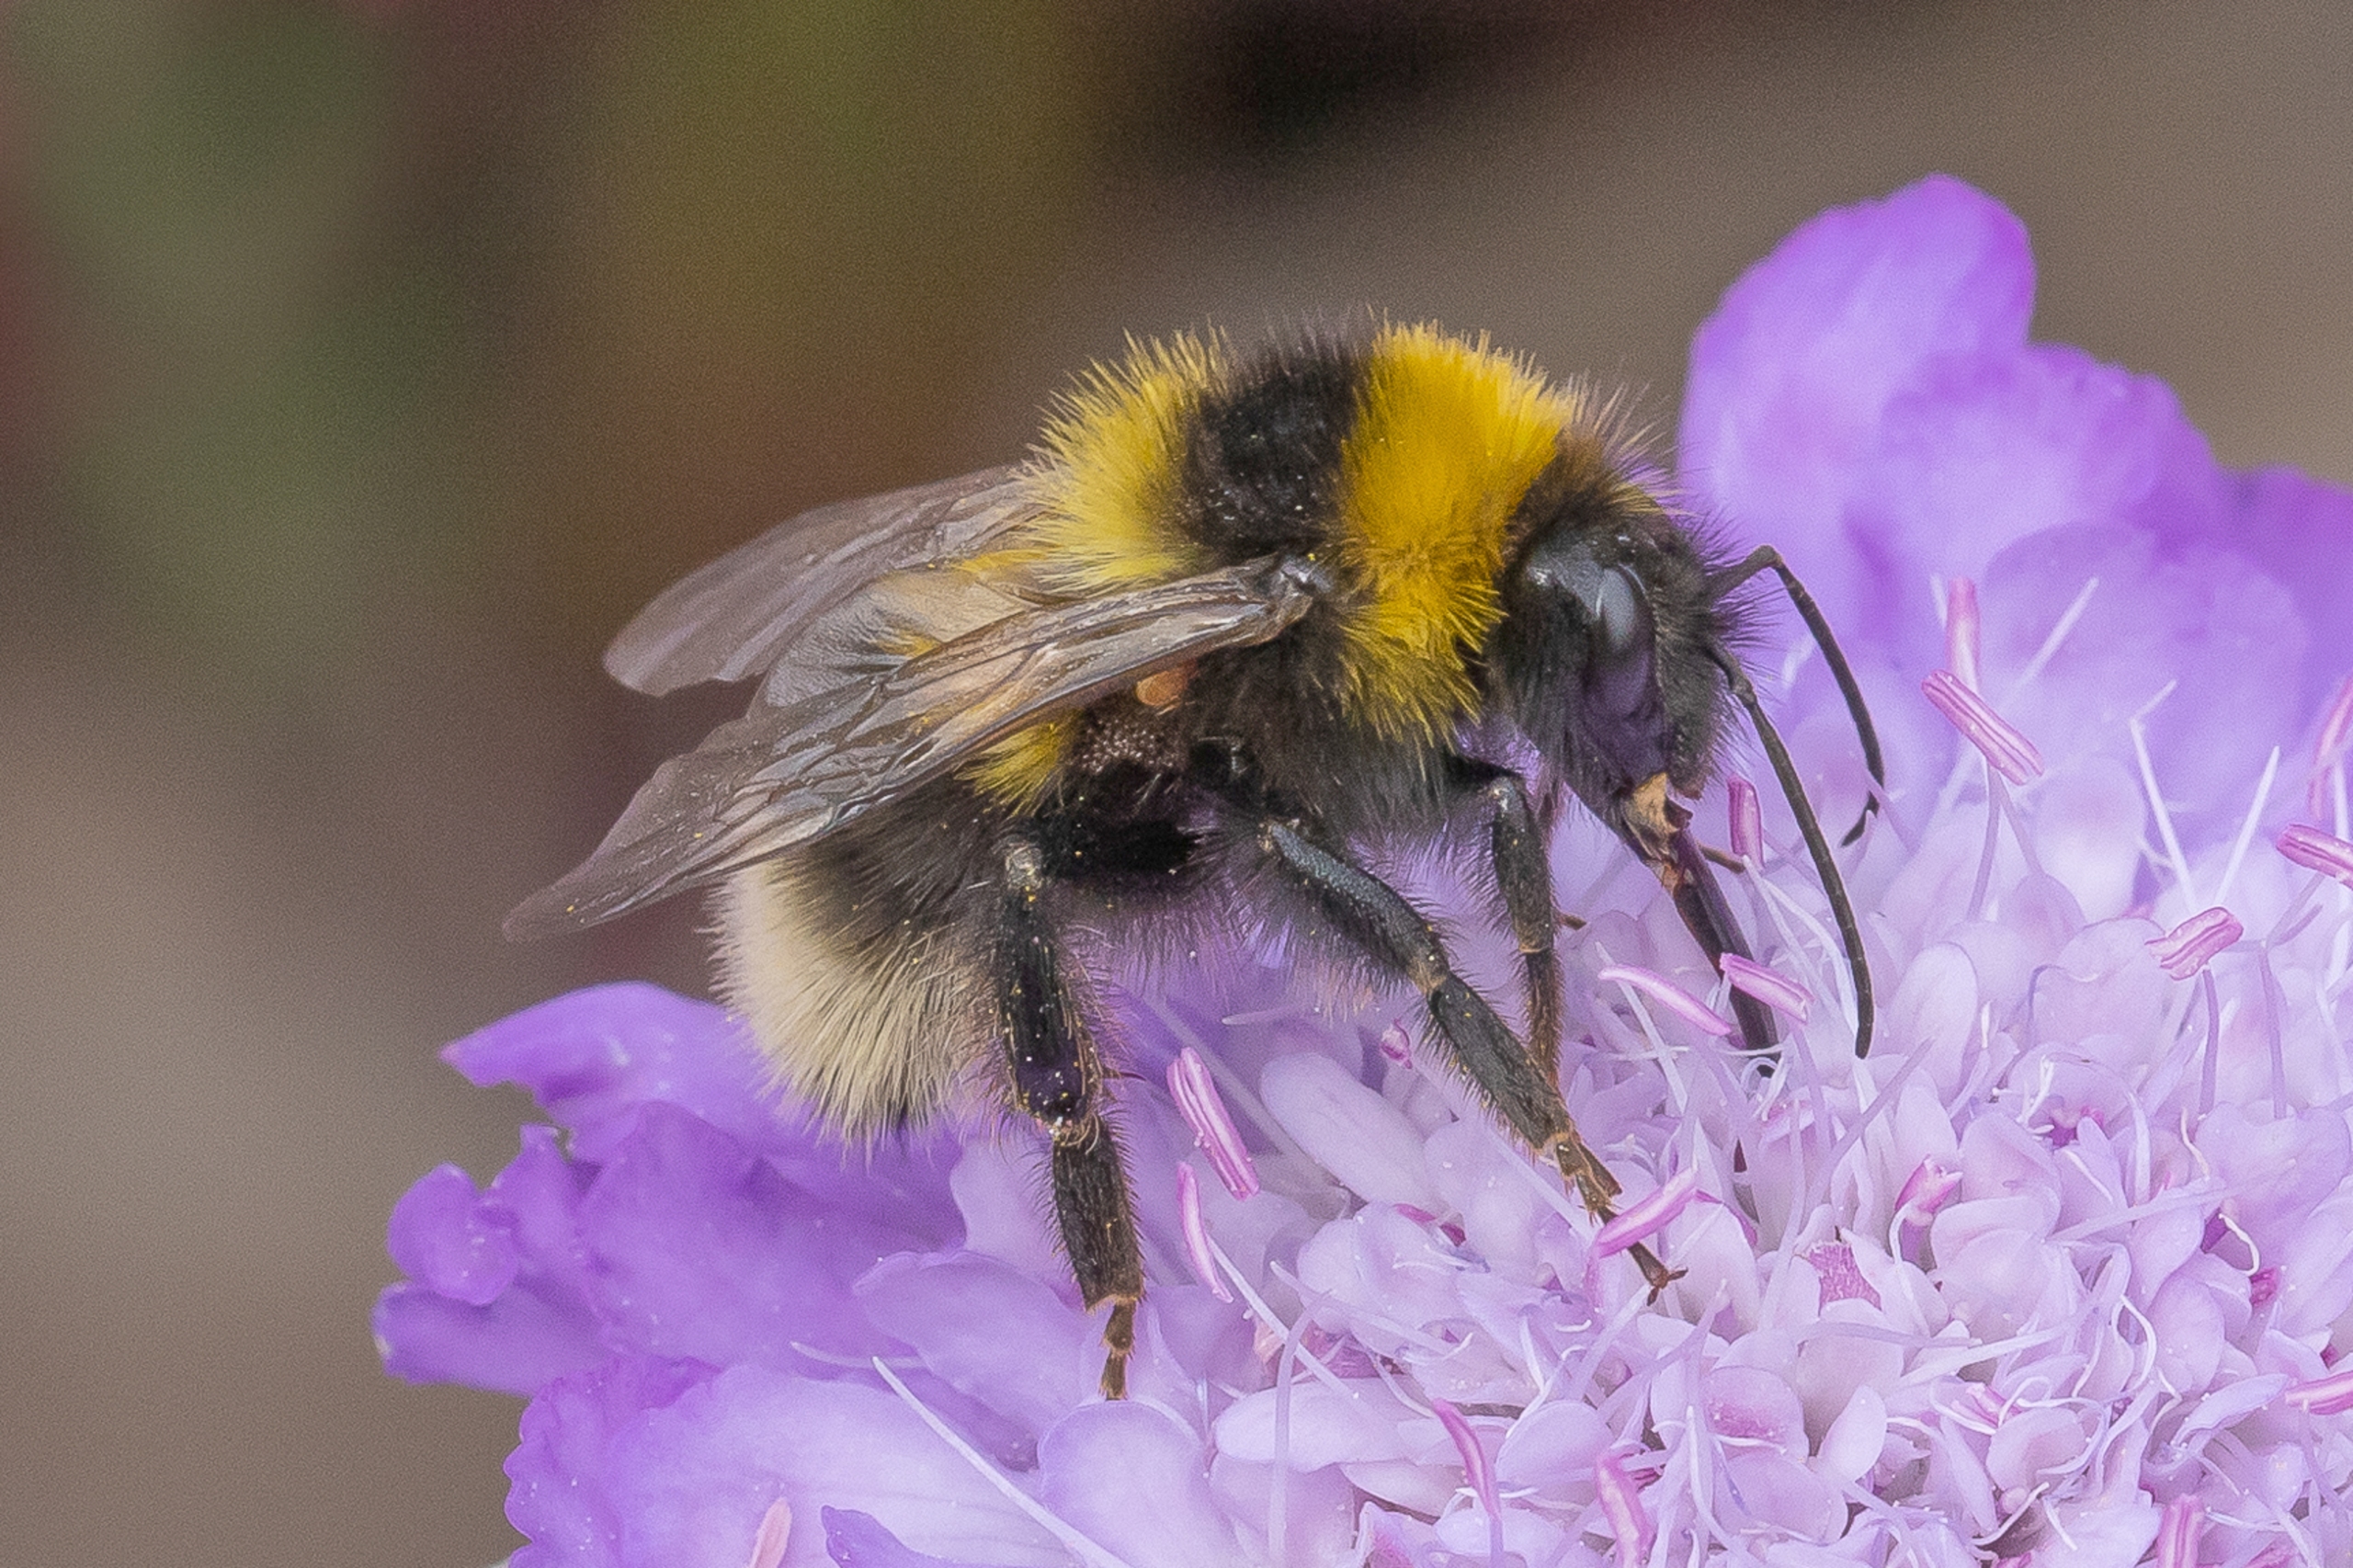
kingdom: Animalia
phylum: Arthropoda
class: Insecta
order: Hymenoptera
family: Apidae
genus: Bombus
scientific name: Bombus hortorum
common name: Havehumle
